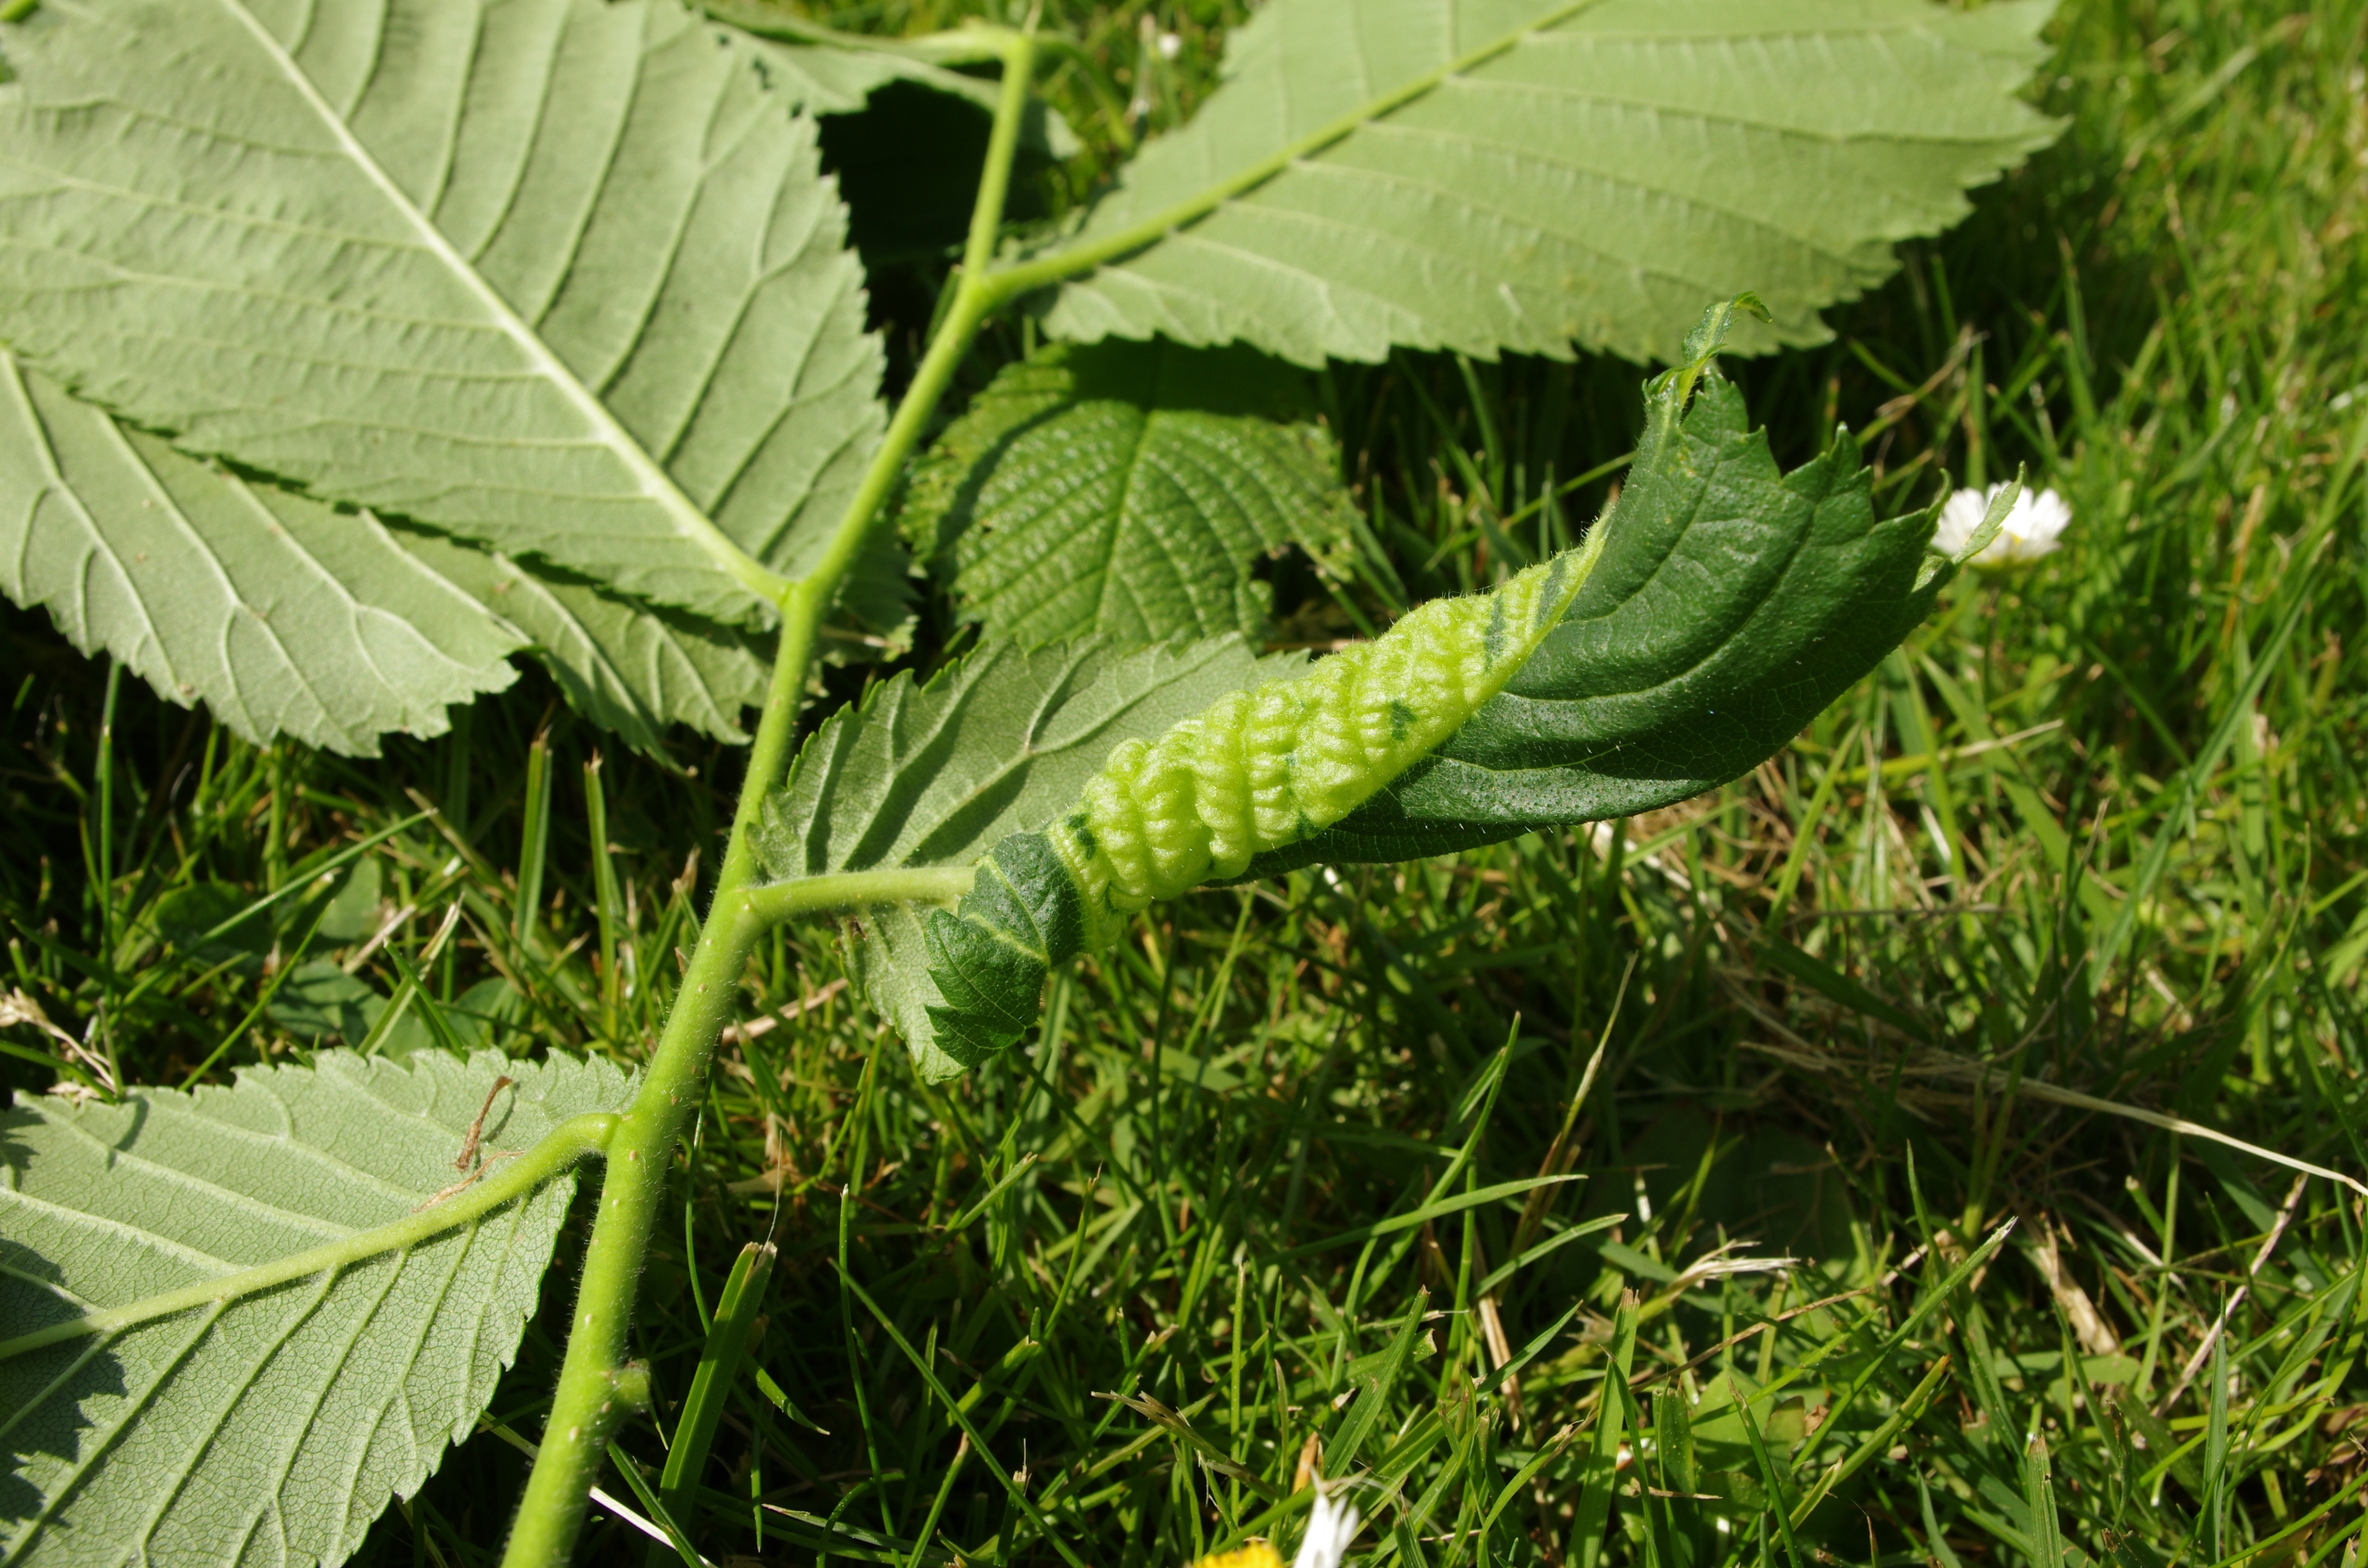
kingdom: Animalia
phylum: Arthropoda
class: Insecta
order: Hemiptera
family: Aphididae
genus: Eriosoma
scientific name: Eriosoma ulmi
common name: Elmeribsrodlus
